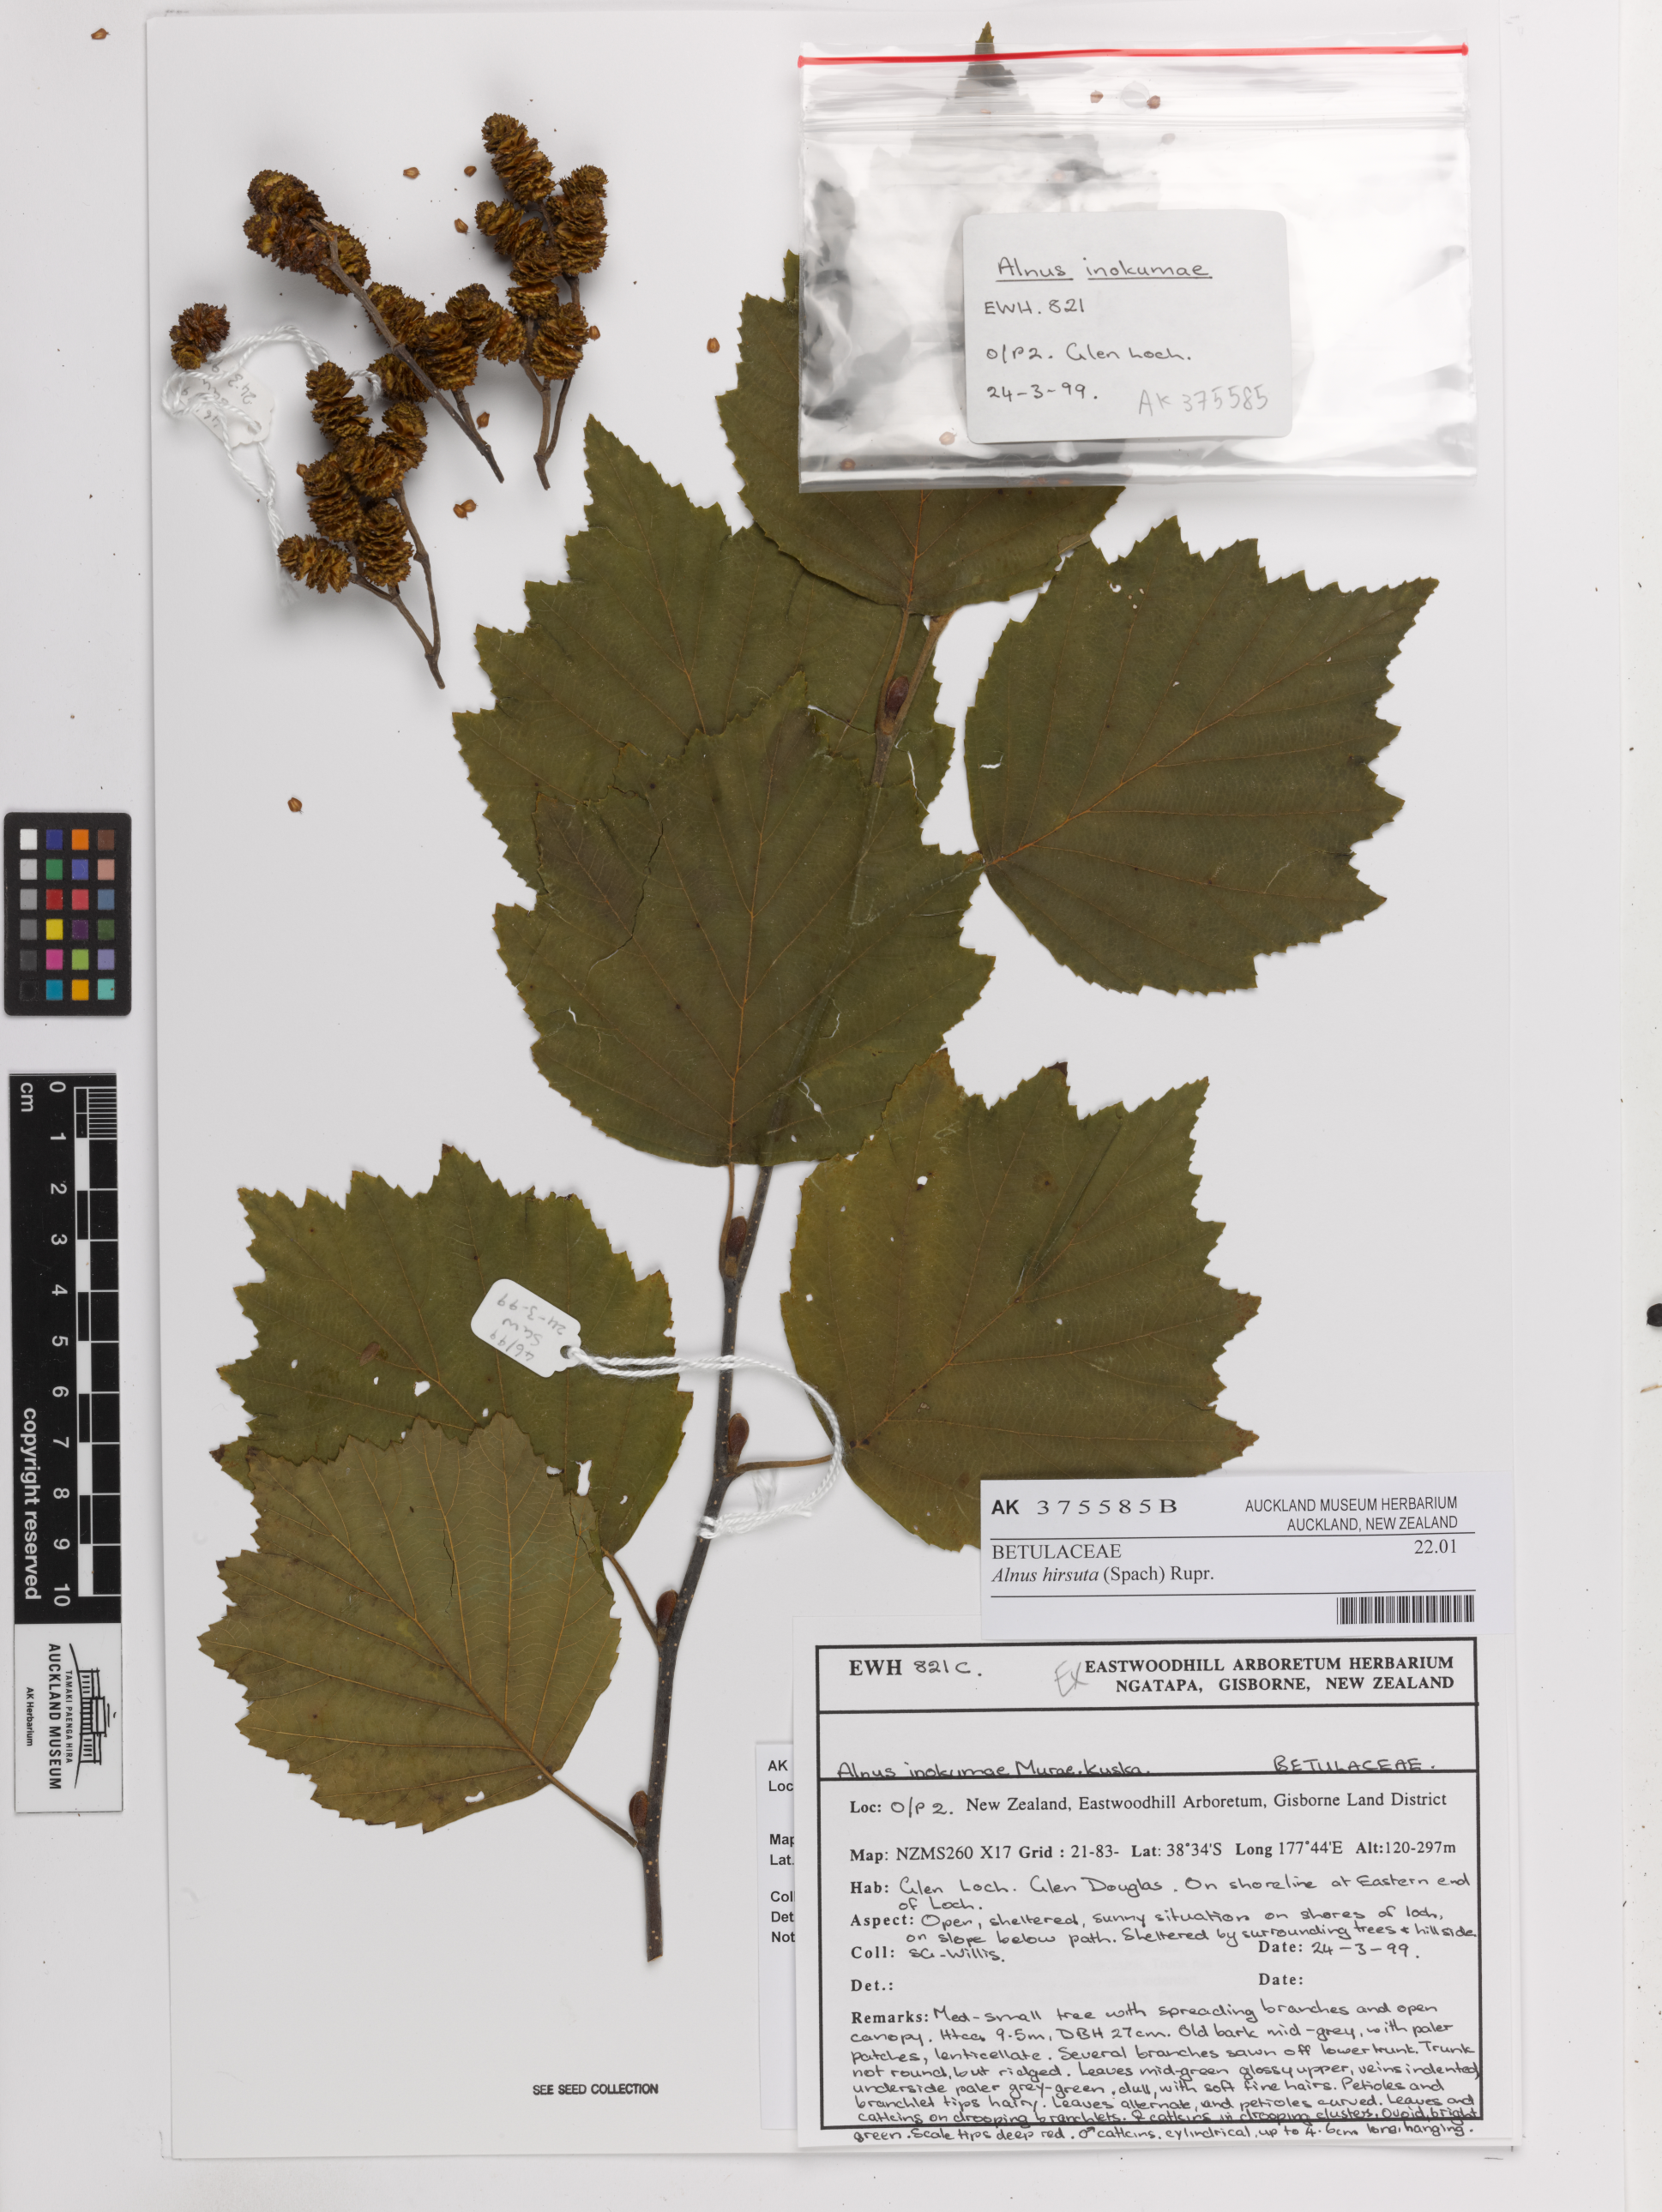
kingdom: Plantae
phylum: Tracheophyta
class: Magnoliopsida
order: Fagales
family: Betulaceae
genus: Alnus
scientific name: Alnus hirsuta
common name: Manchurian alder
